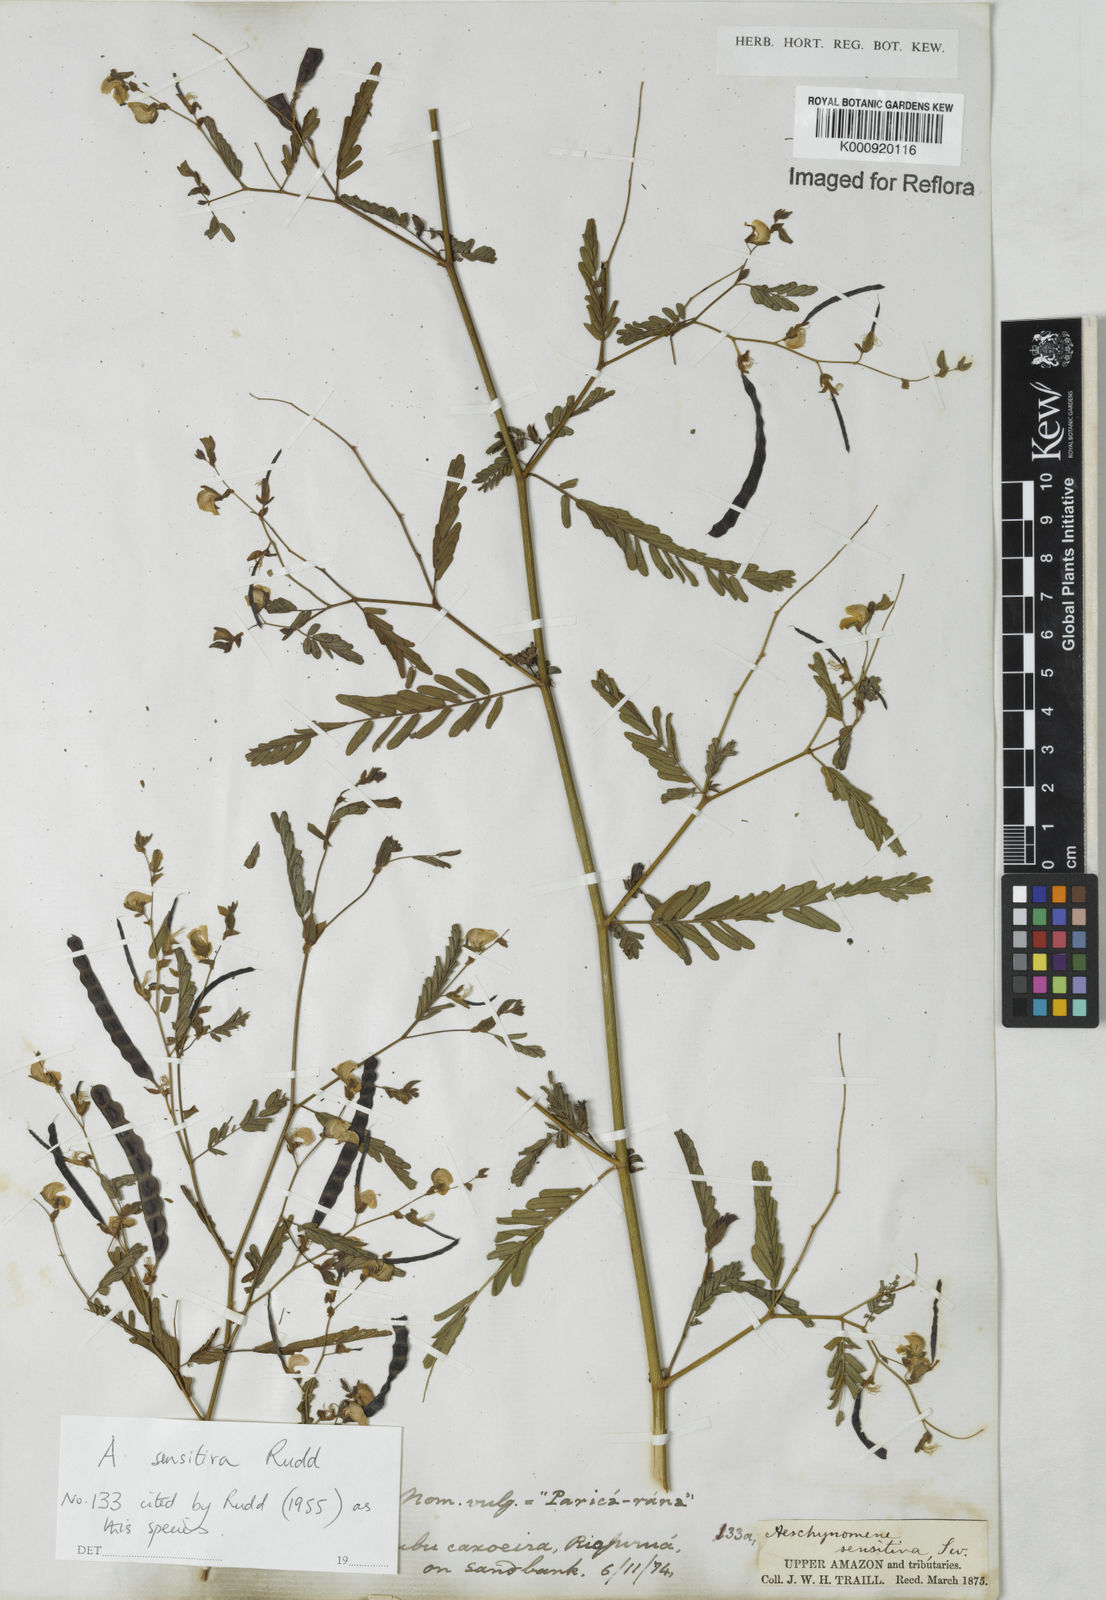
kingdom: Plantae
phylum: Tracheophyta
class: Magnoliopsida
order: Fabales
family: Fabaceae
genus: Aeschynomene
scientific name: Aeschynomene sensitiva
